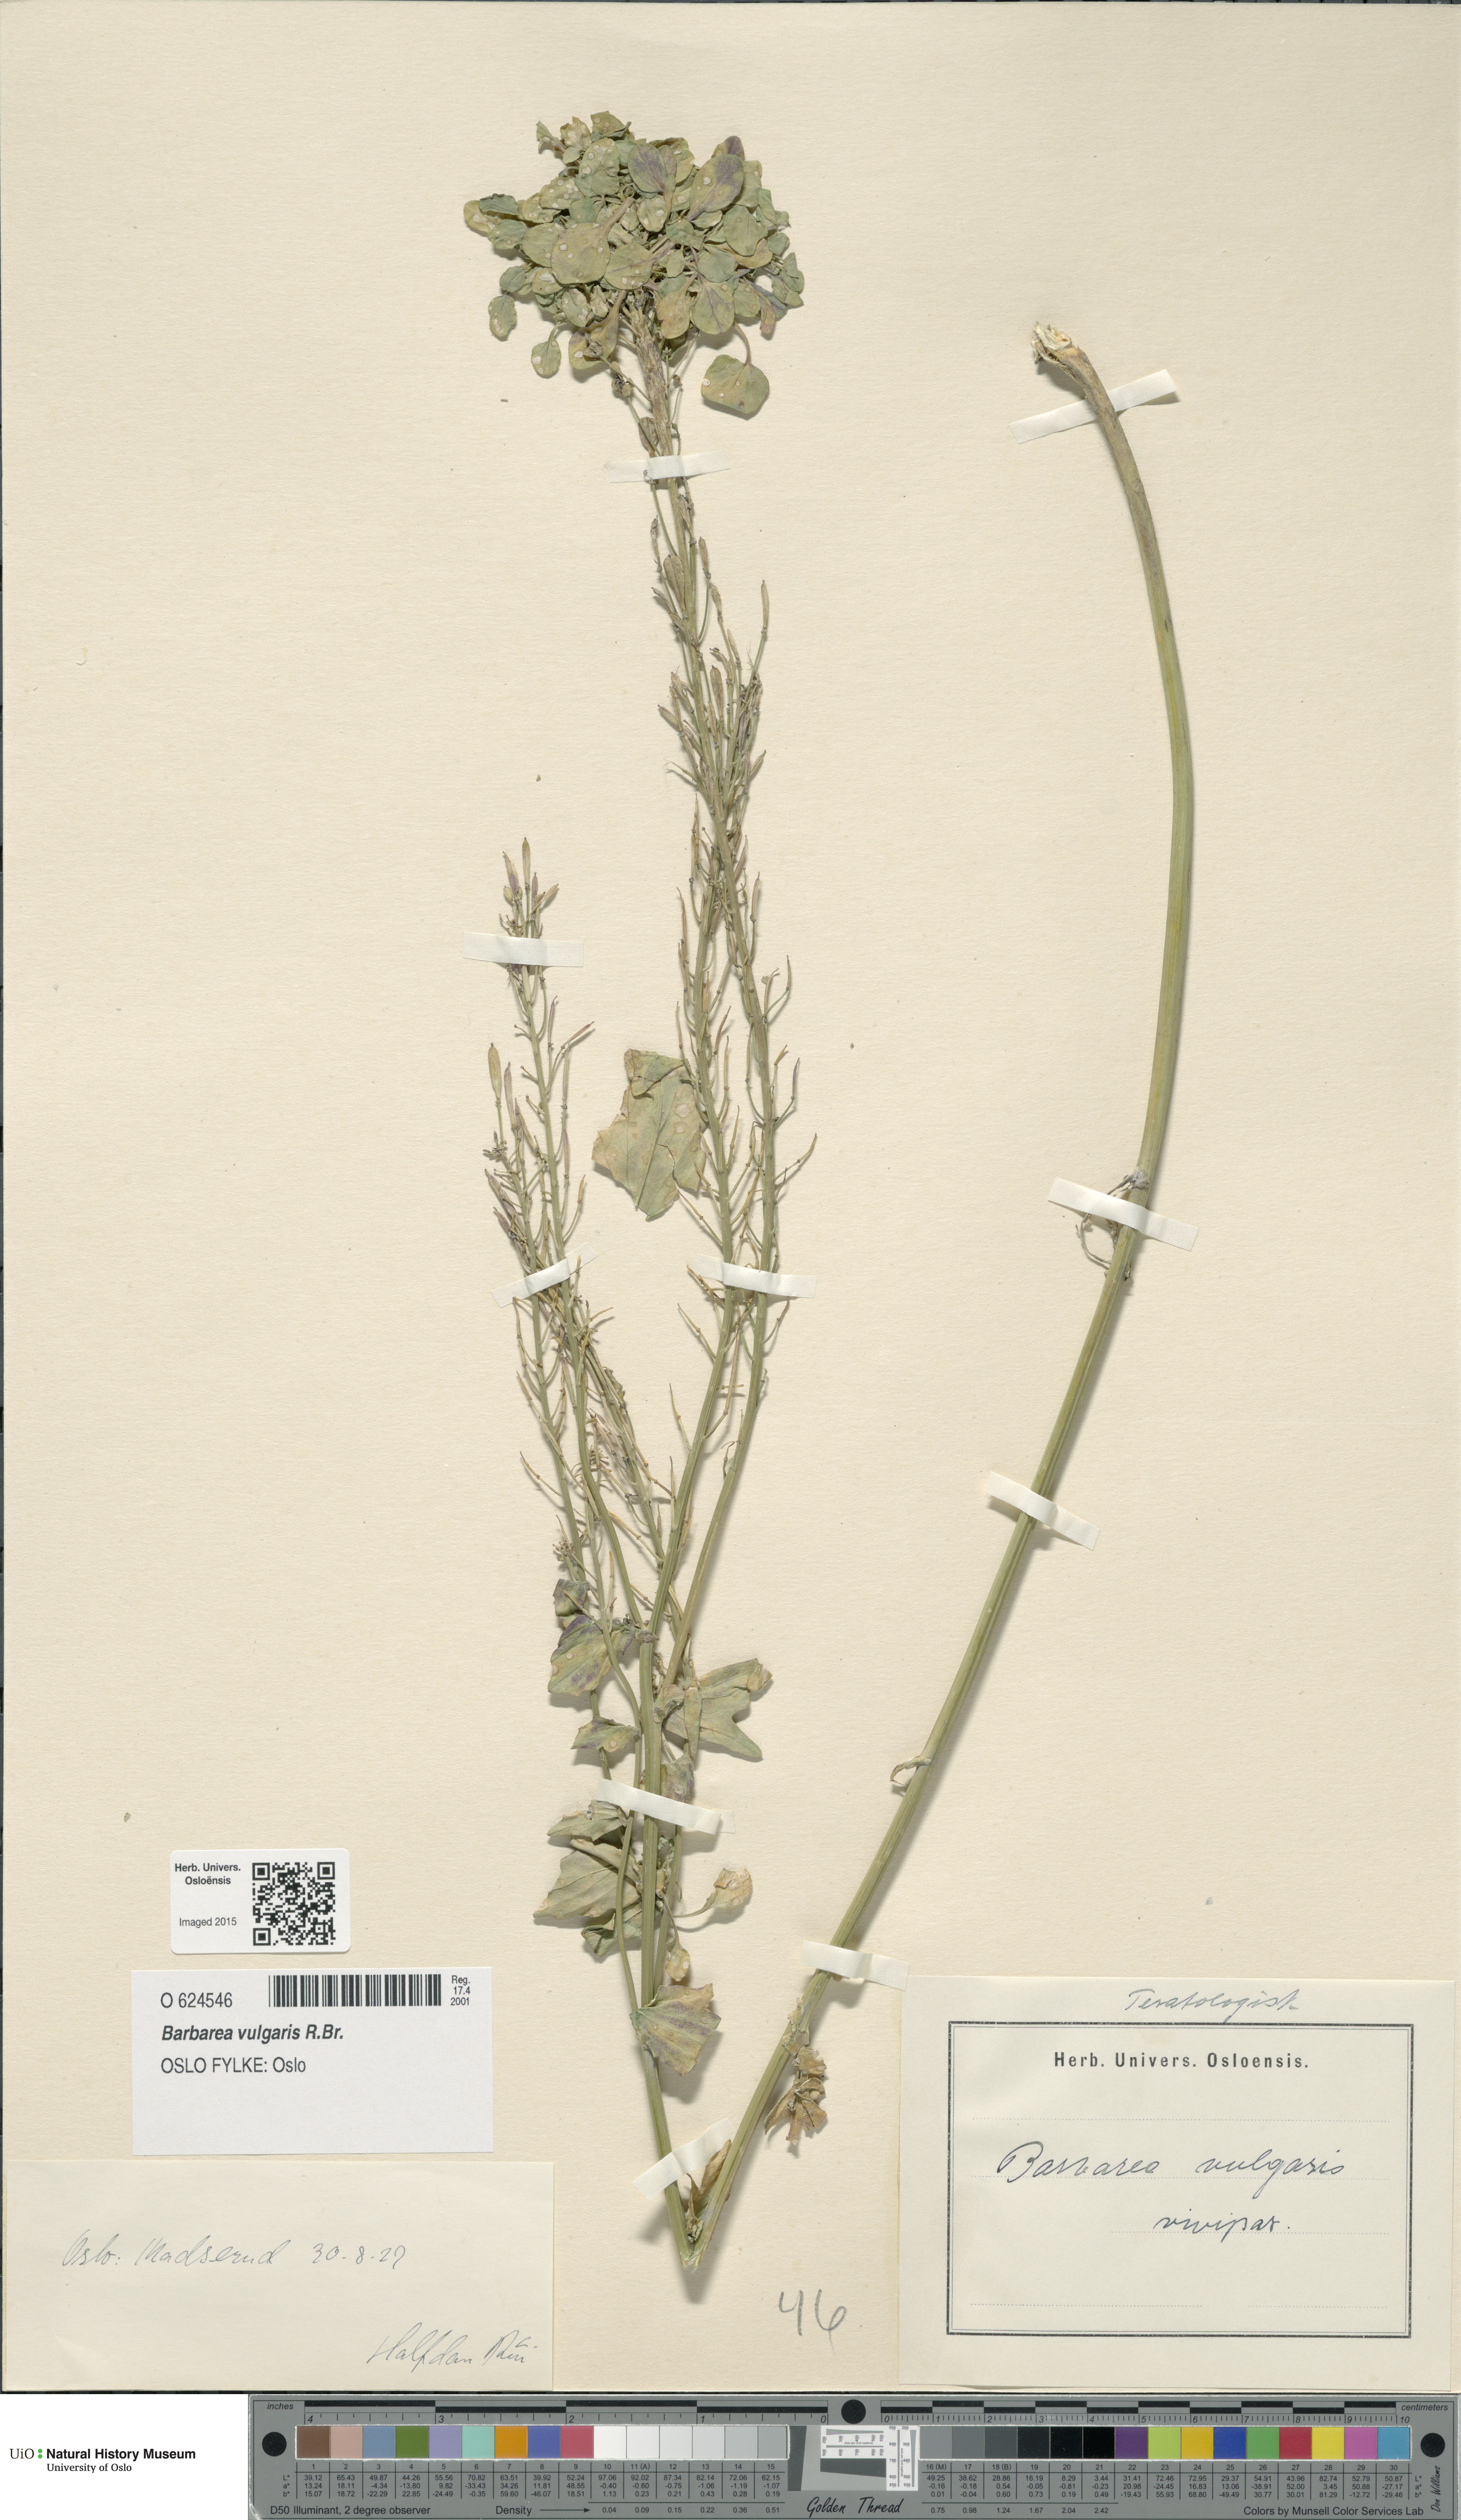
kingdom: Plantae
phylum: Tracheophyta
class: Magnoliopsida
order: Brassicales
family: Brassicaceae
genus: Barbarea
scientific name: Barbarea vulgaris
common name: Cressy-greens
